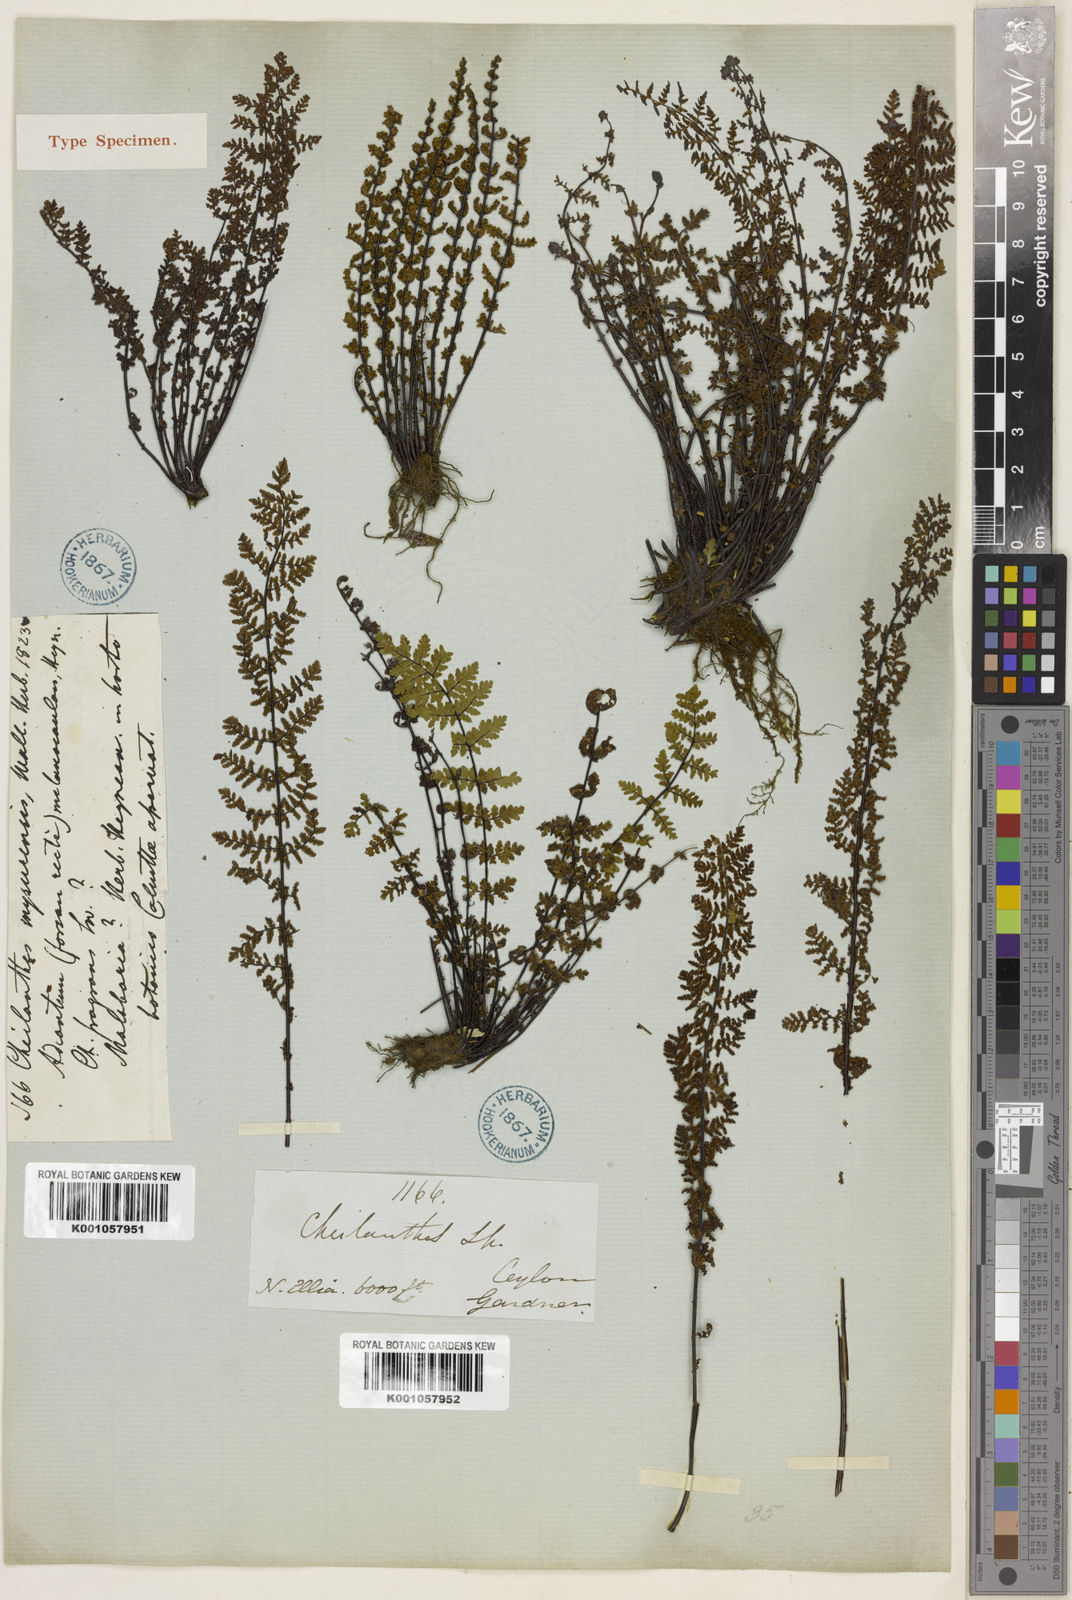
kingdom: Plantae
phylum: Tracheophyta
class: Polypodiopsida
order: Polypodiales
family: Pteridaceae
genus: Oeosporangium
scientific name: Oeosporangium elegans
